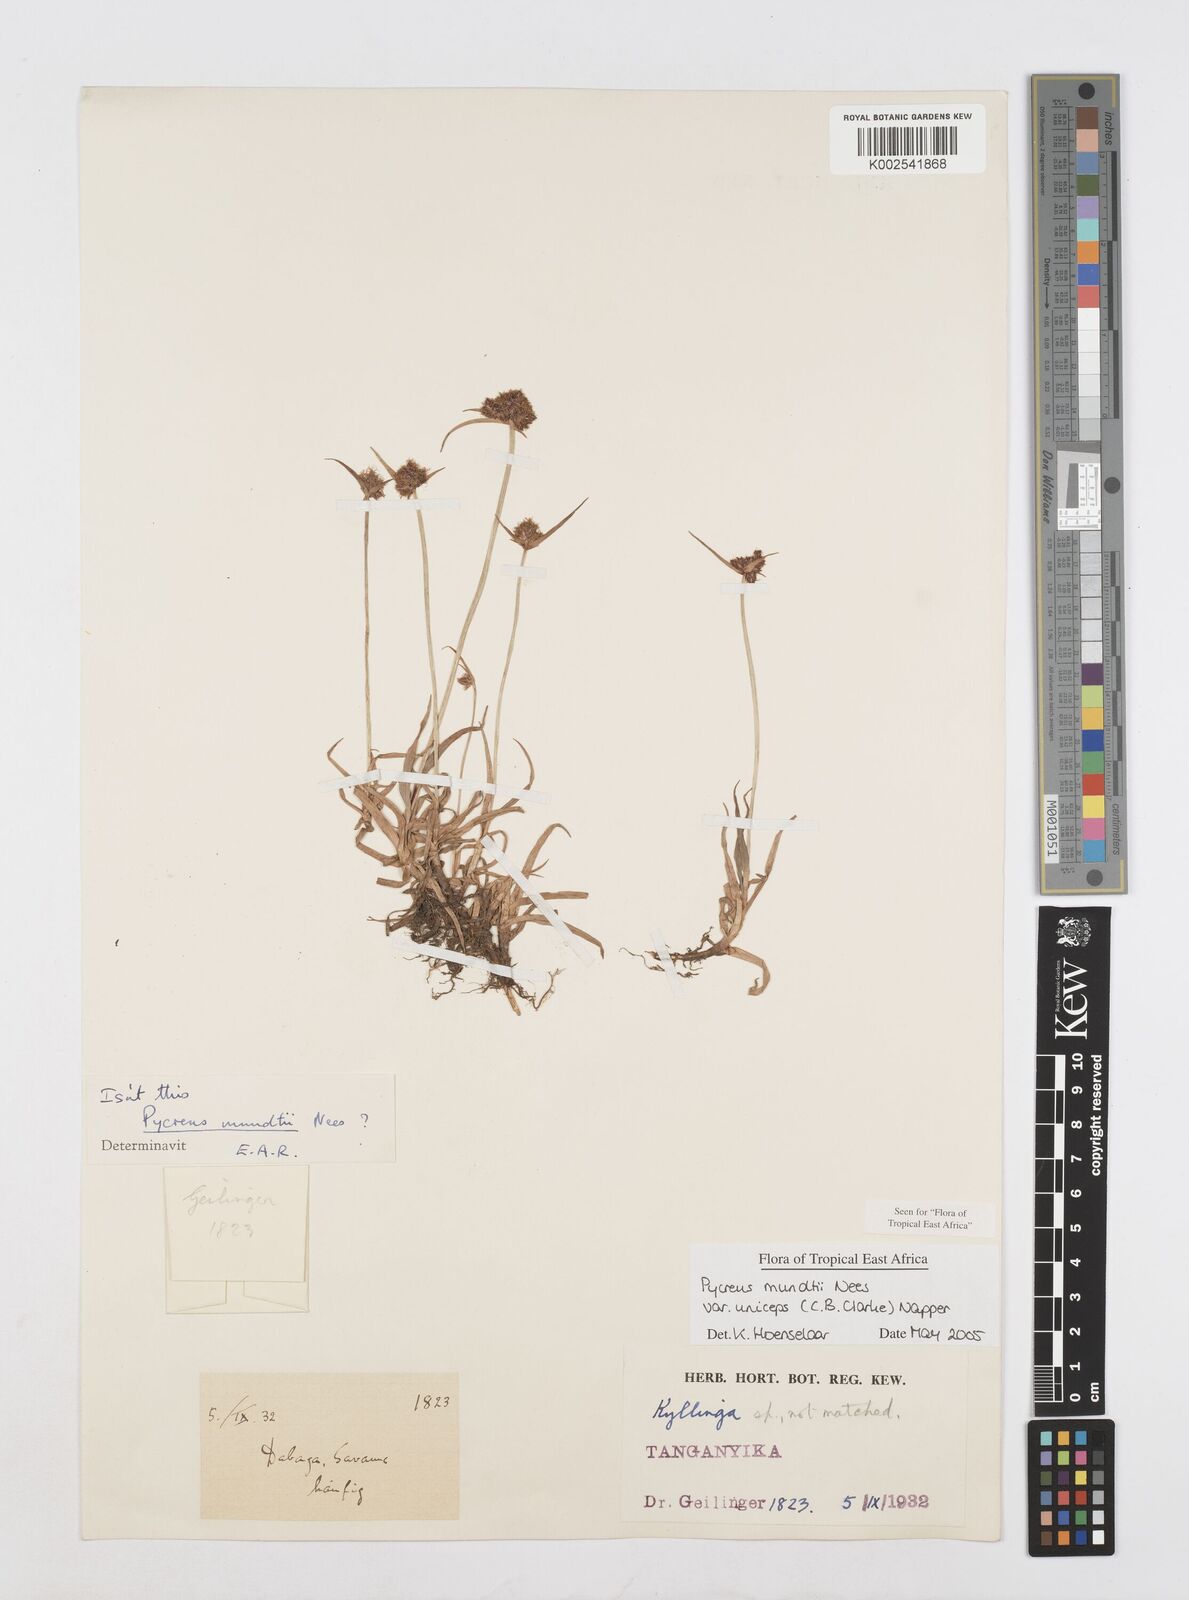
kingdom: Plantae
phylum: Tracheophyta
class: Liliopsida
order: Poales
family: Cyperaceae
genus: Cyperus
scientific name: Cyperus mundii
